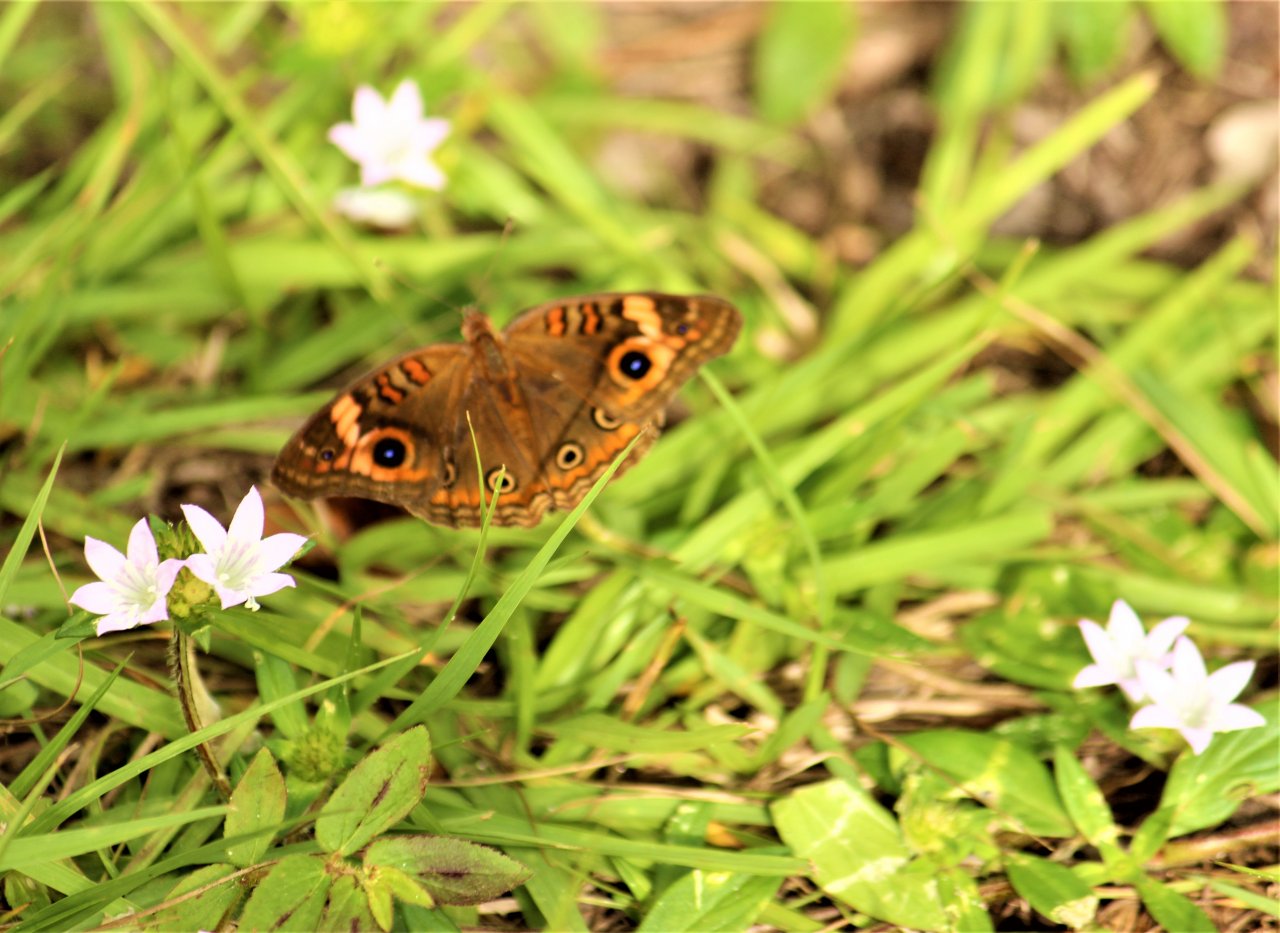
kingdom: Animalia
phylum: Arthropoda
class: Insecta
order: Lepidoptera
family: Nymphalidae
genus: Junonia
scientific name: Junonia evarete
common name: Mangrove Buckeye
